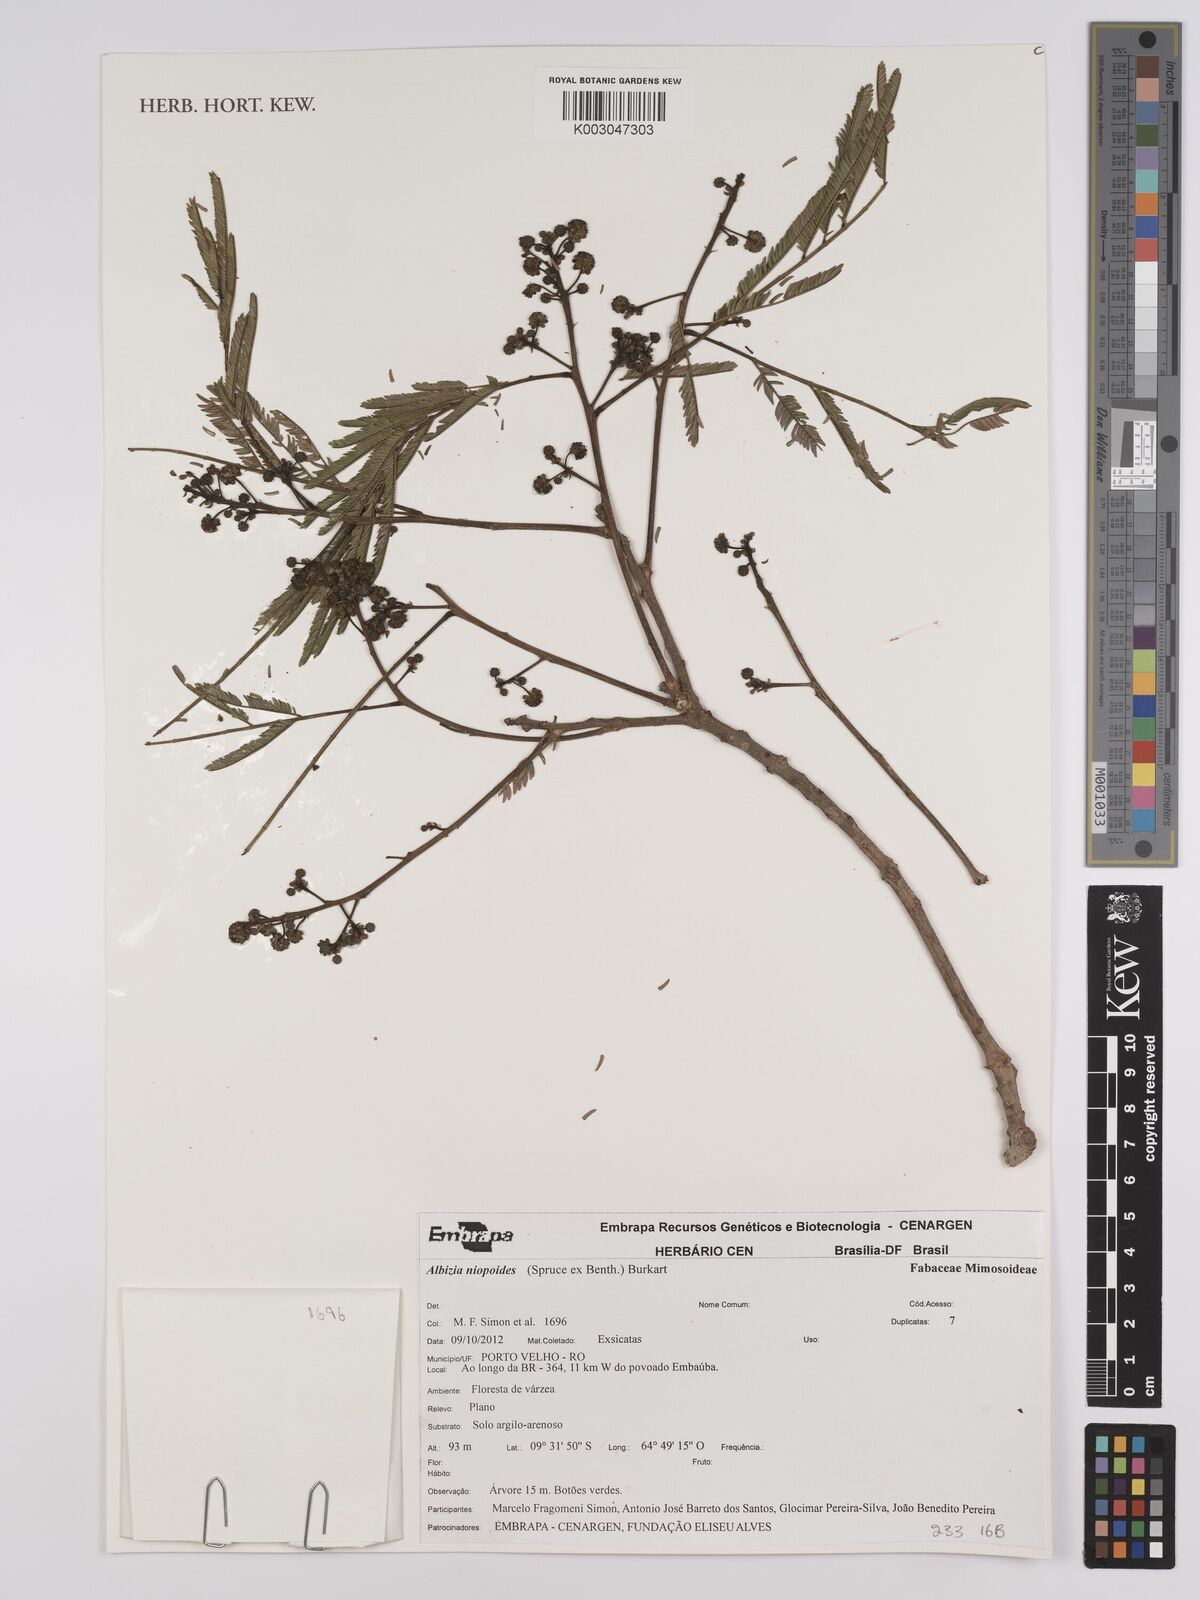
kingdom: Plantae
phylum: Tracheophyta
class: Magnoliopsida
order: Fabales
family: Fabaceae
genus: Albizia
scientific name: Albizia niopoides
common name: Silk tree
